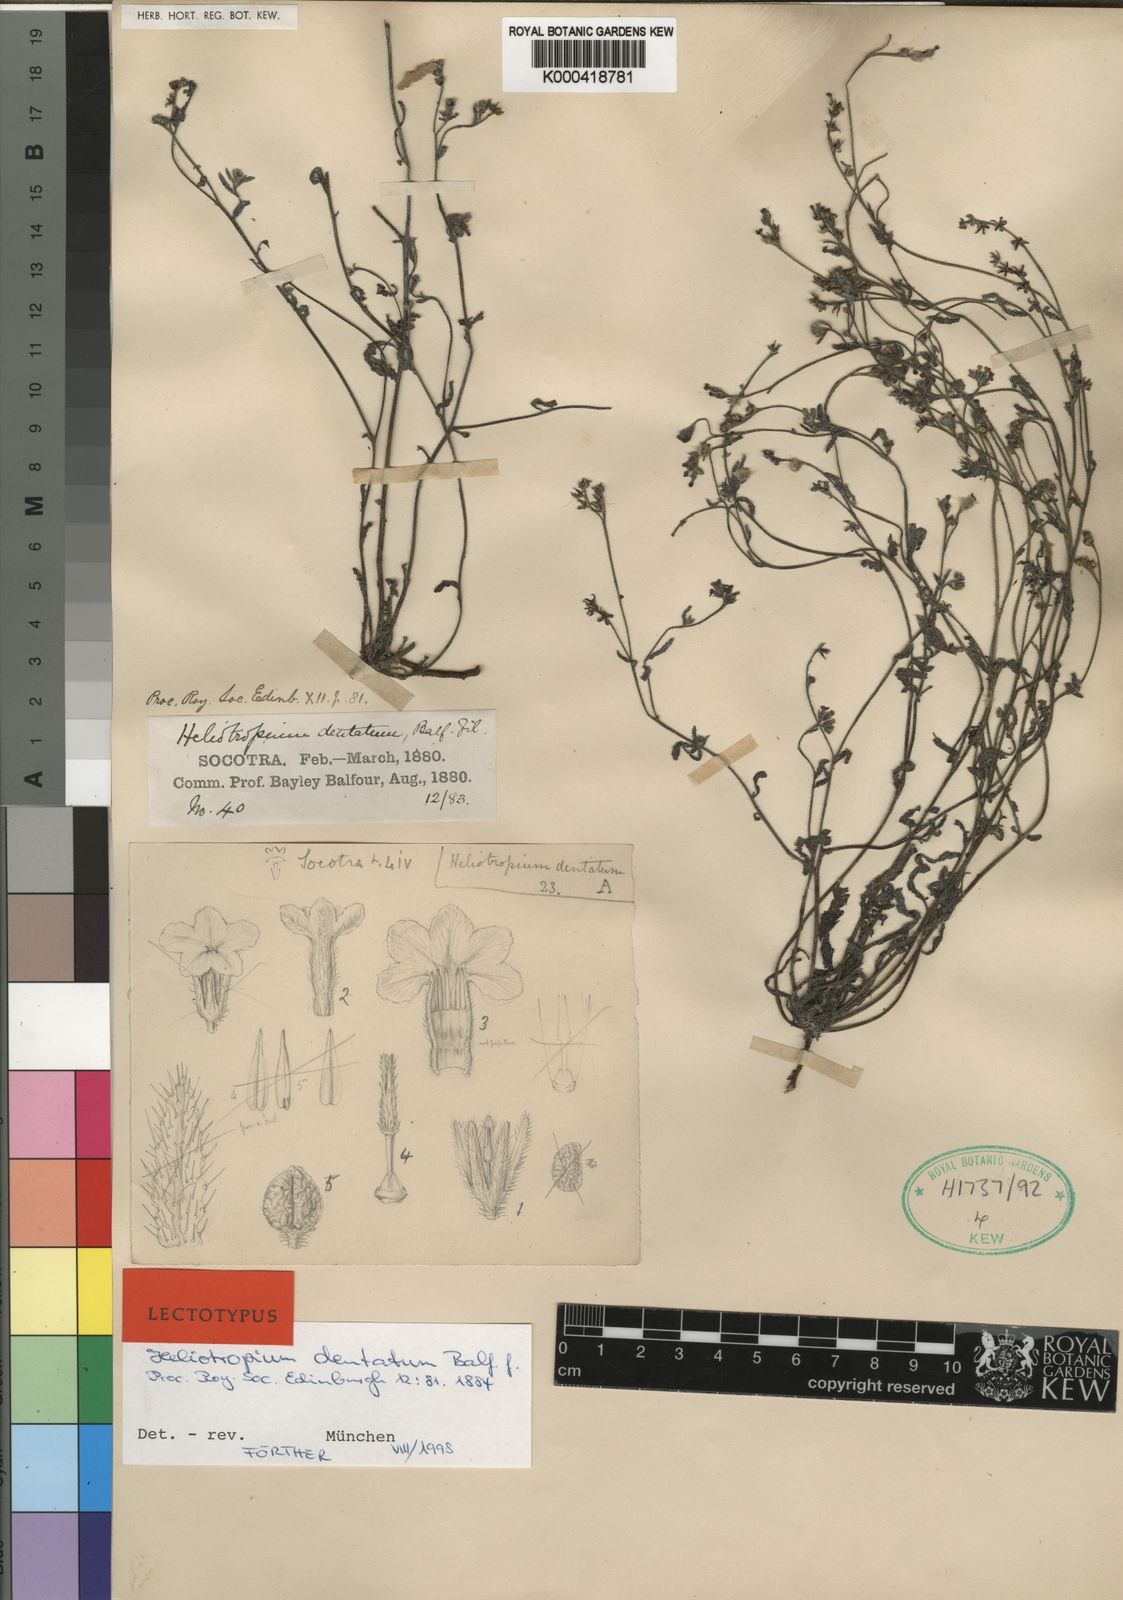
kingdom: Plantae
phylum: Tracheophyta
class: Magnoliopsida
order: Boraginales
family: Heliotropiaceae
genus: Heliotropium
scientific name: Heliotropium dentatum
